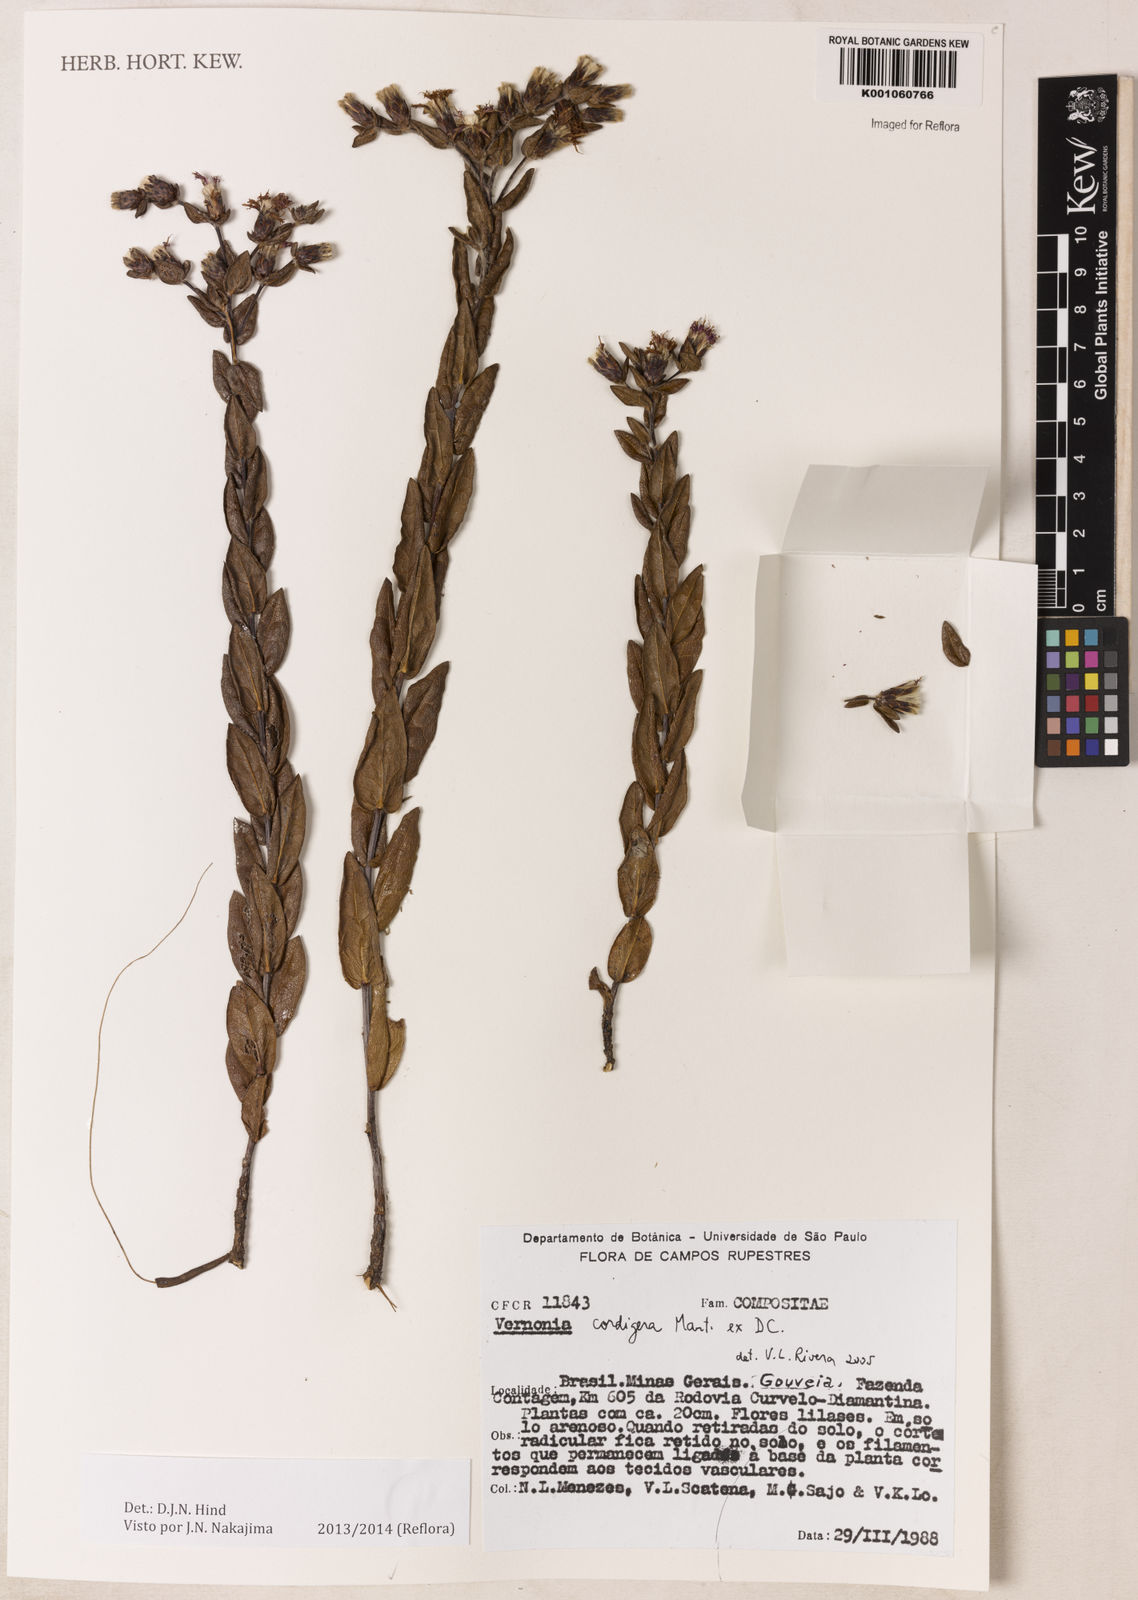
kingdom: Plantae
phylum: Tracheophyta
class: Magnoliopsida
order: Asterales
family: Asteraceae
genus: Lepidaploa
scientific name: Lepidaploa lilacina
